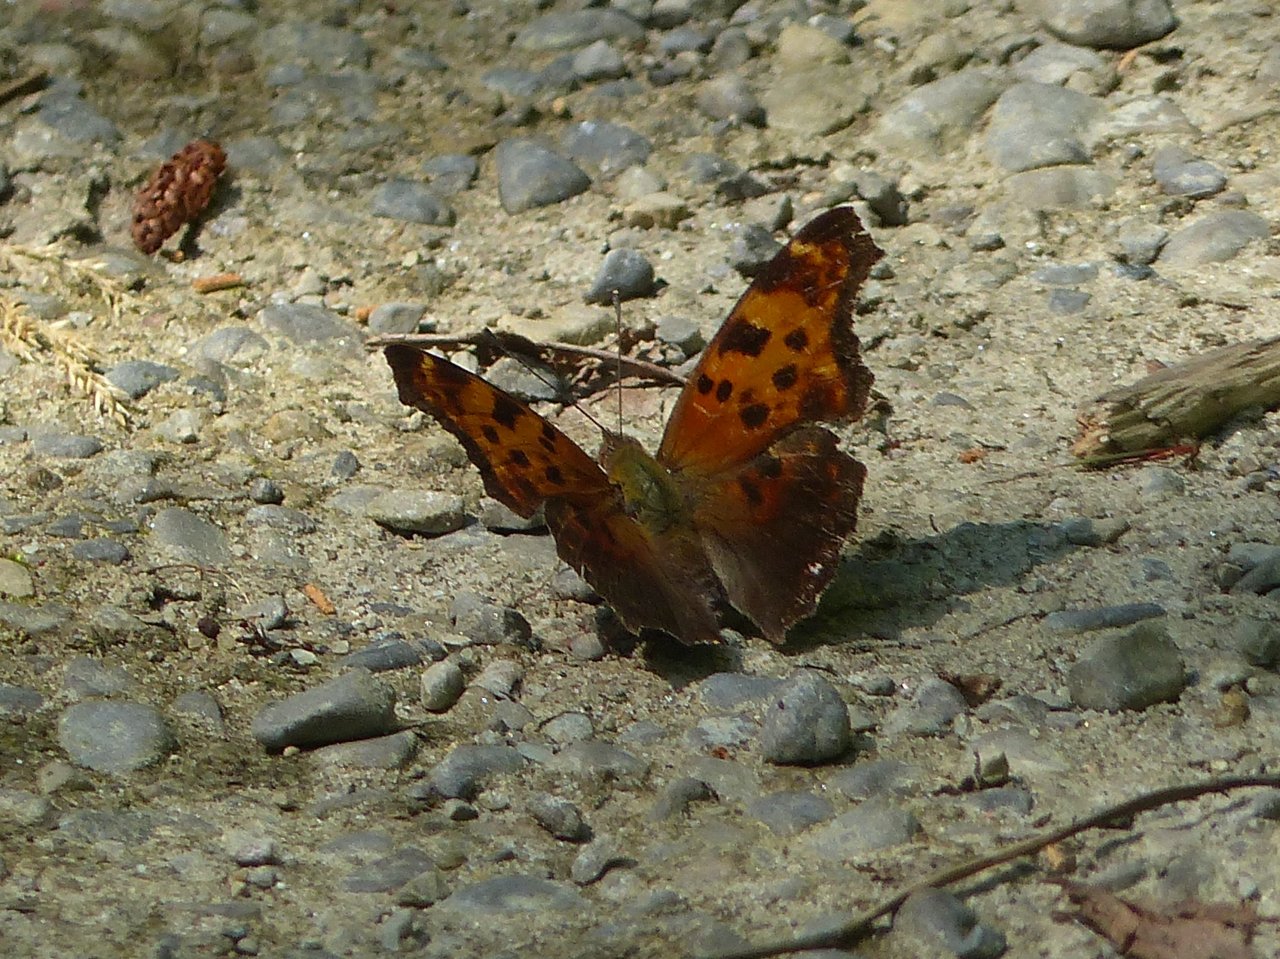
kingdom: Animalia
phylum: Arthropoda
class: Insecta
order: Lepidoptera
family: Nymphalidae
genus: Polygonia
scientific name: Polygonia comma
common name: Eastern Comma
